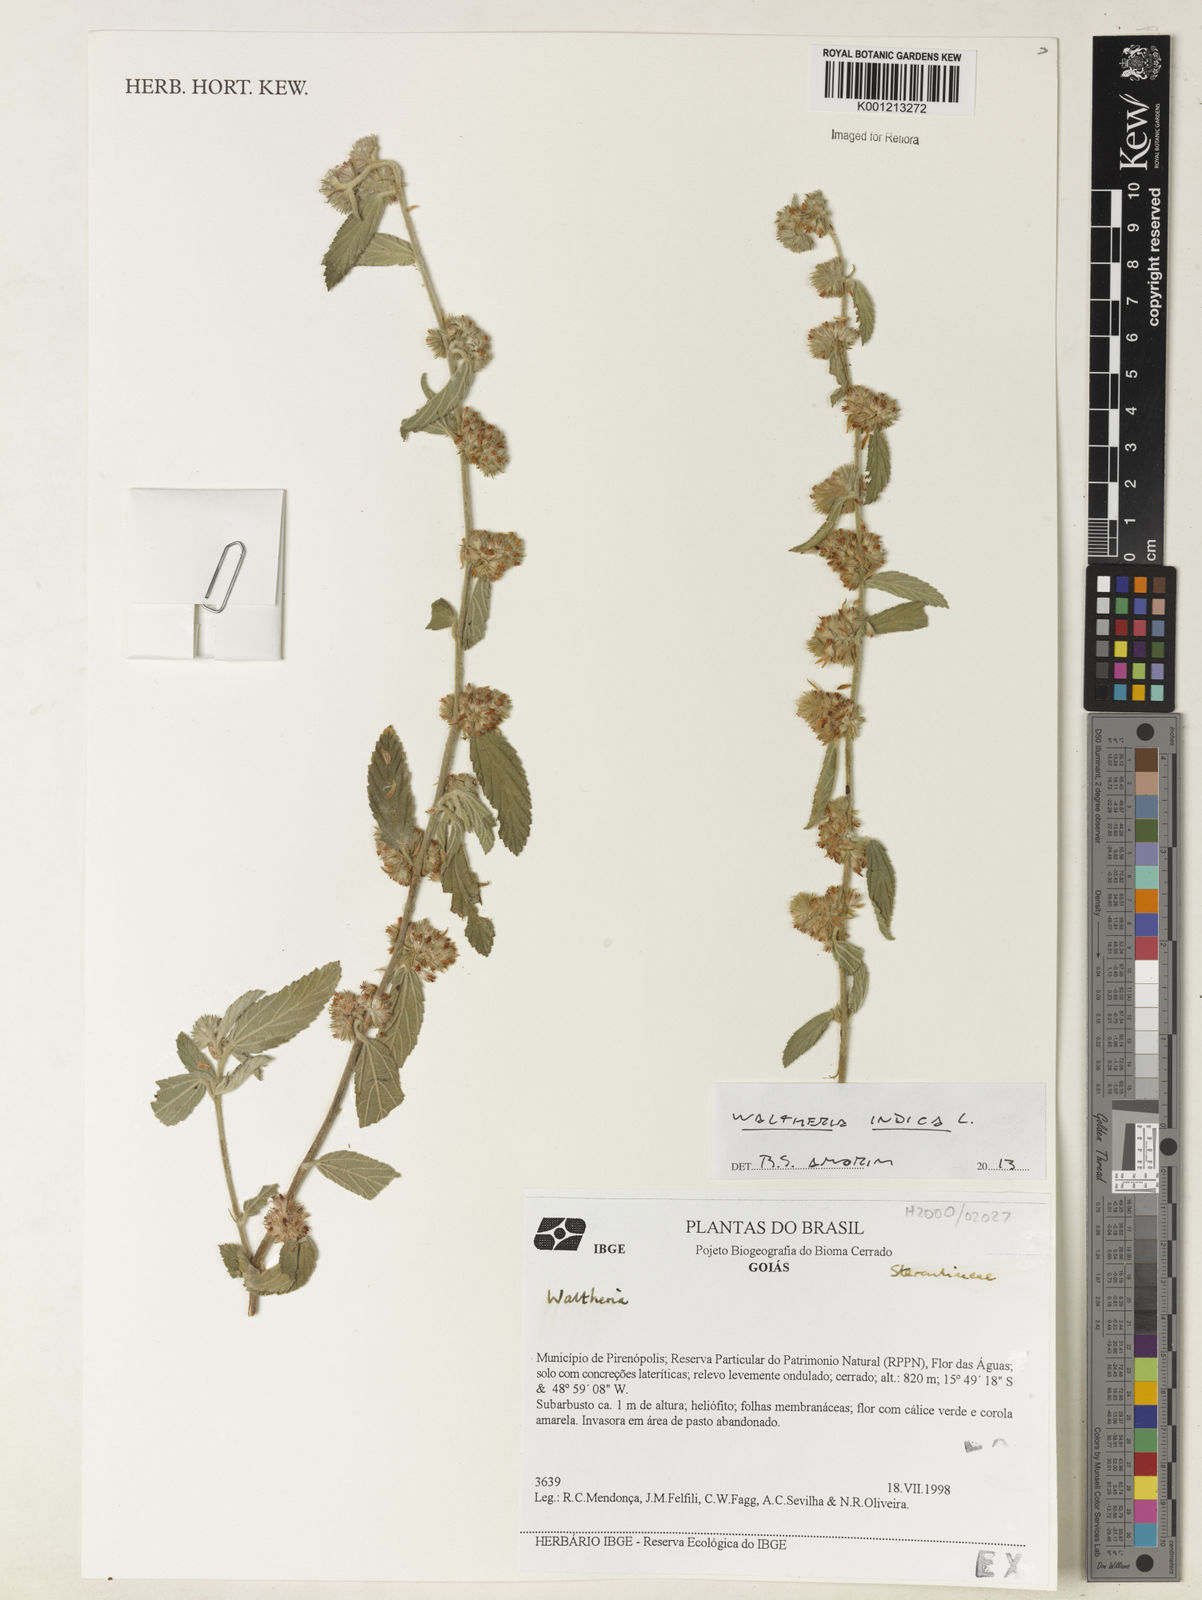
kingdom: Plantae
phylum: Tracheophyta
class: Magnoliopsida
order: Malvales
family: Malvaceae
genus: Waltheria
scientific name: Waltheria indica
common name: Leather-coat
